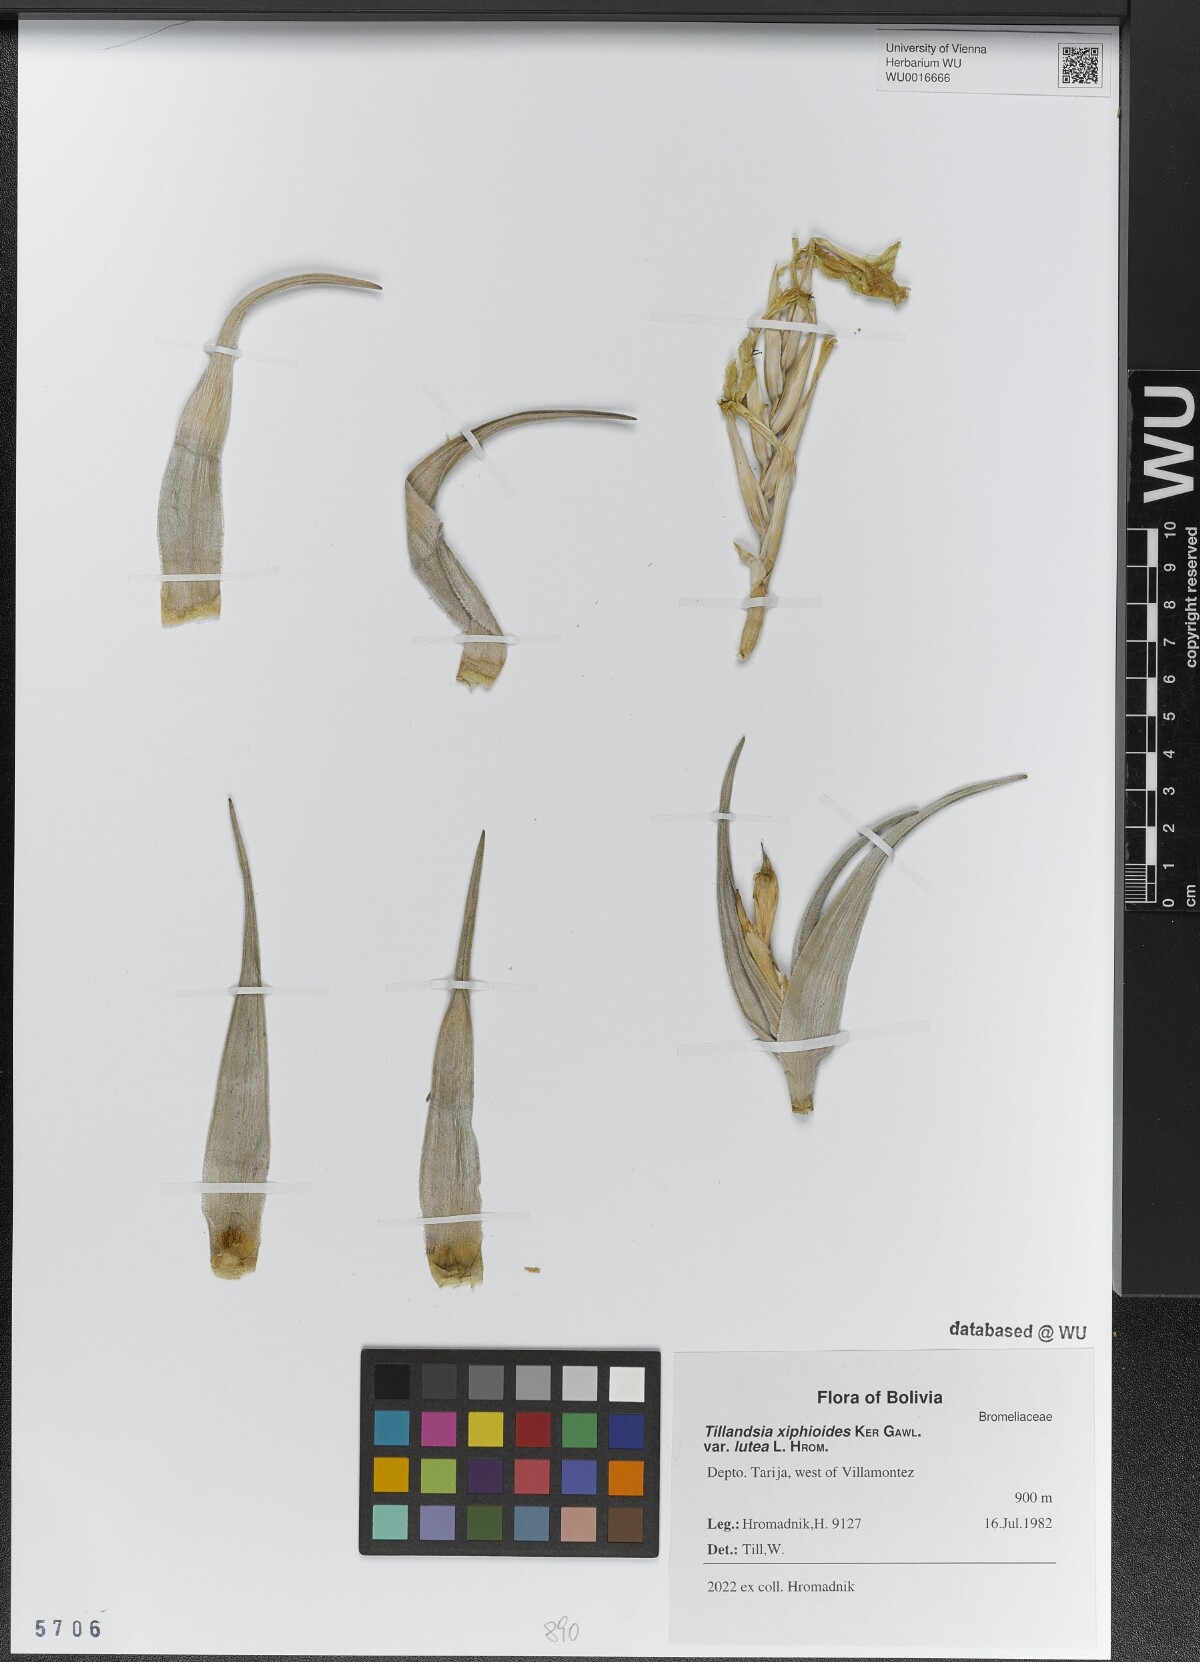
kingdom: Plantae
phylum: Tracheophyta
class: Liliopsida
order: Poales
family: Bromeliaceae
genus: Tillandsia
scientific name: Tillandsia xiphioides
